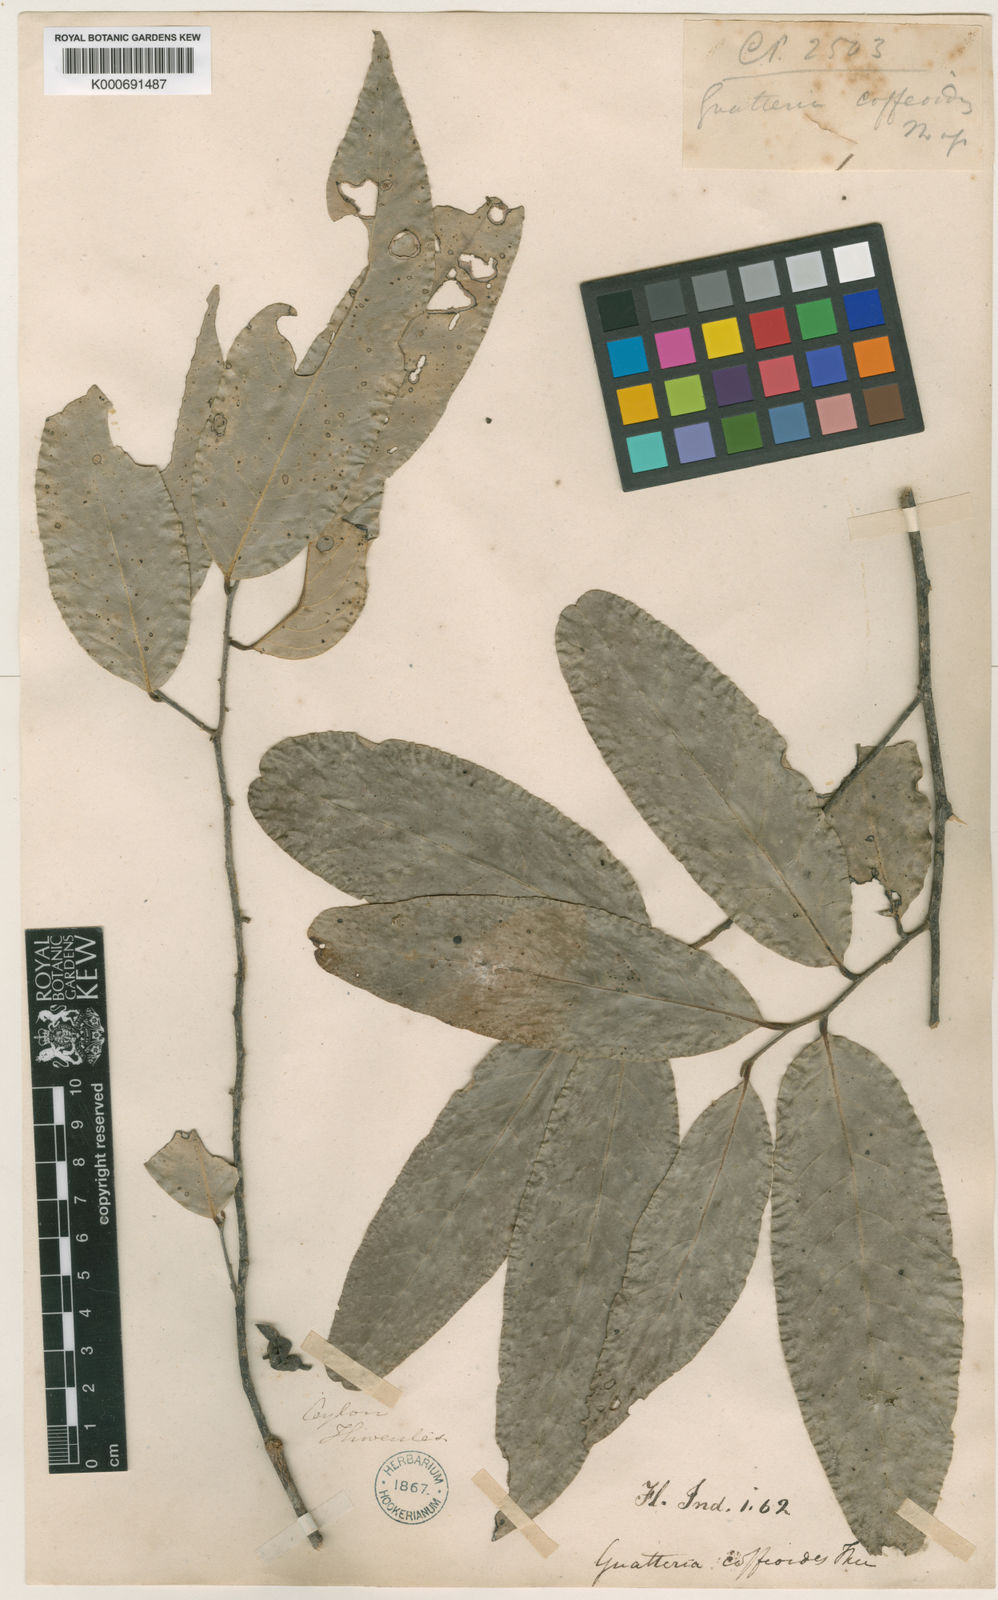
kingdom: Plantae
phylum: Tracheophyta
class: Magnoliopsida
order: Magnoliales
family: Annonaceae
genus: Monoon
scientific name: Monoon coffeoides
